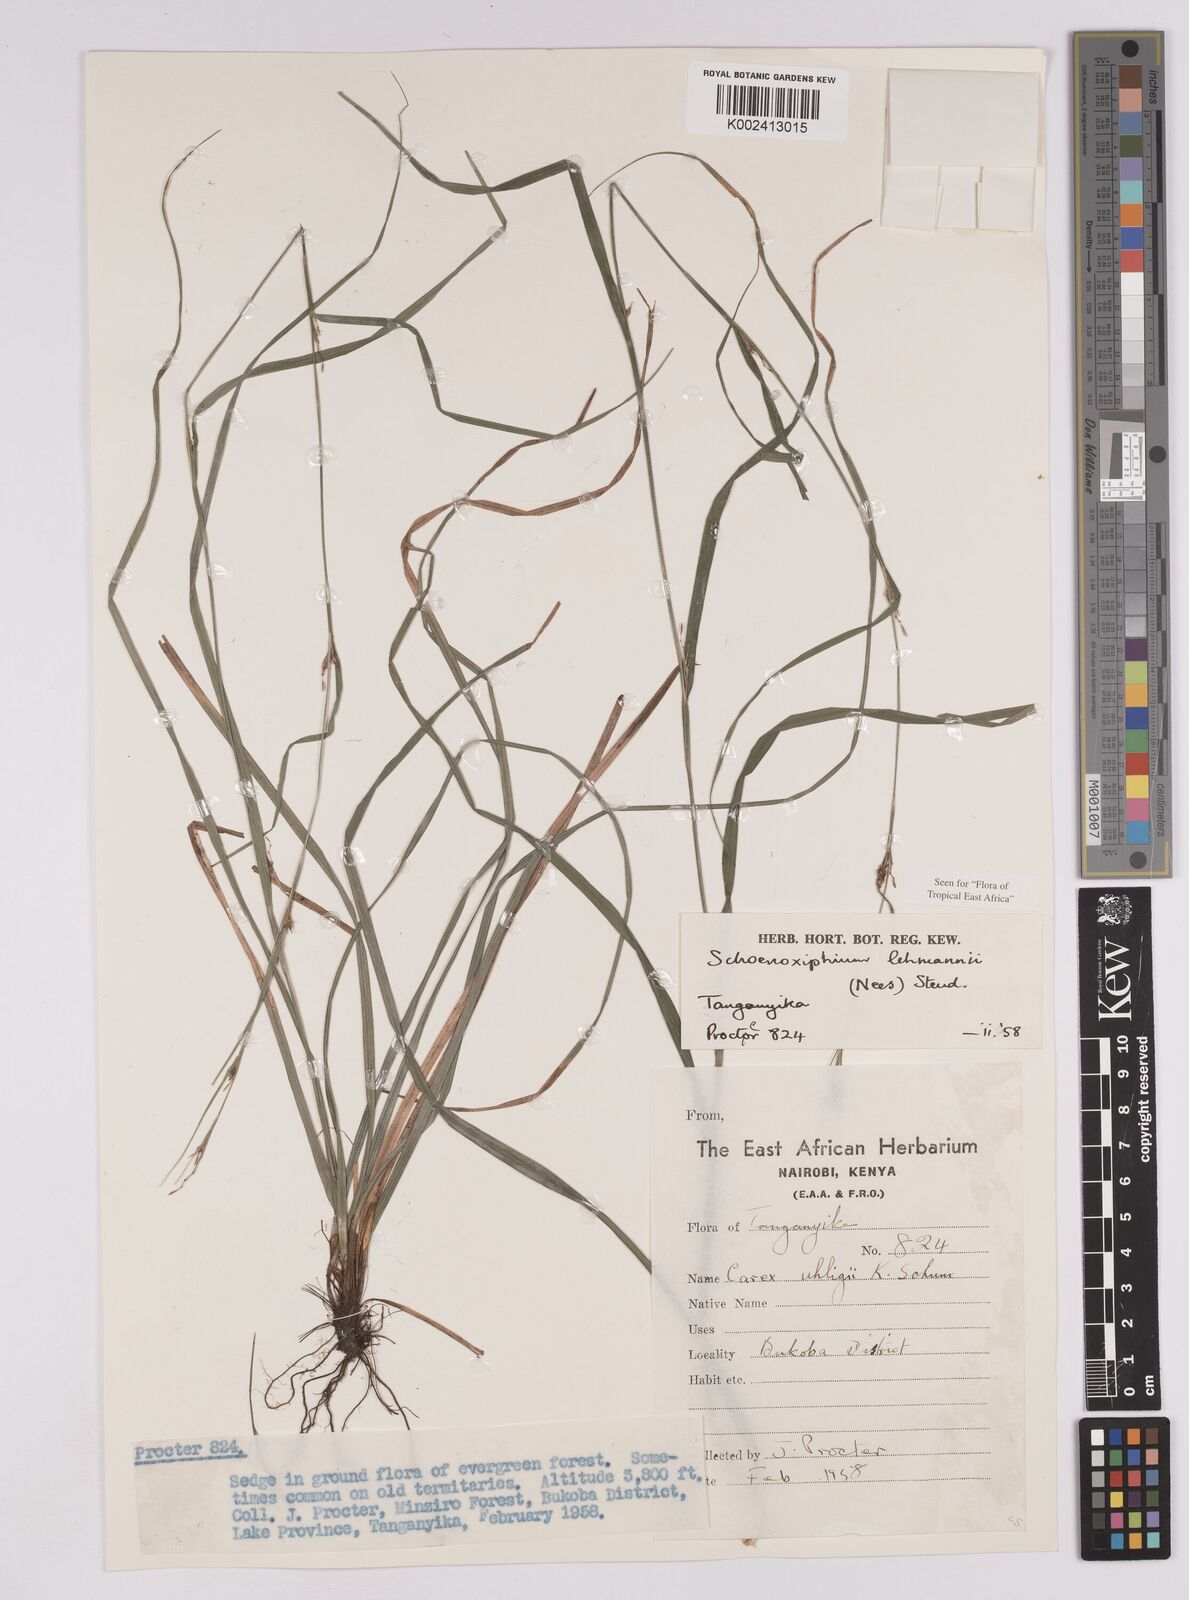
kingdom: Plantae
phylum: Tracheophyta
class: Liliopsida
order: Poales
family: Cyperaceae
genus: Carex
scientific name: Carex uhligii
